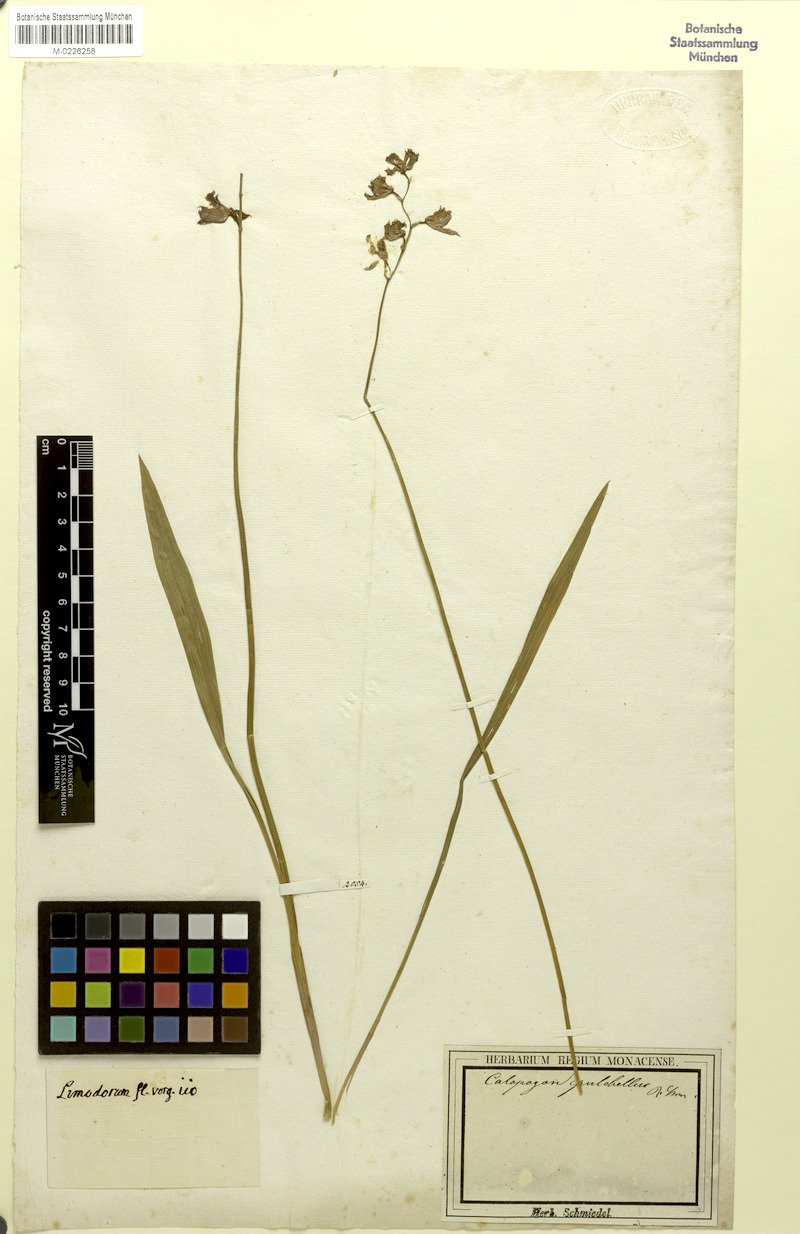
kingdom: Plantae
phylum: Tracheophyta
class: Liliopsida
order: Asparagales
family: Orchidaceae
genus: Calopogon
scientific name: Calopogon tuberosus
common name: Grass-pink
